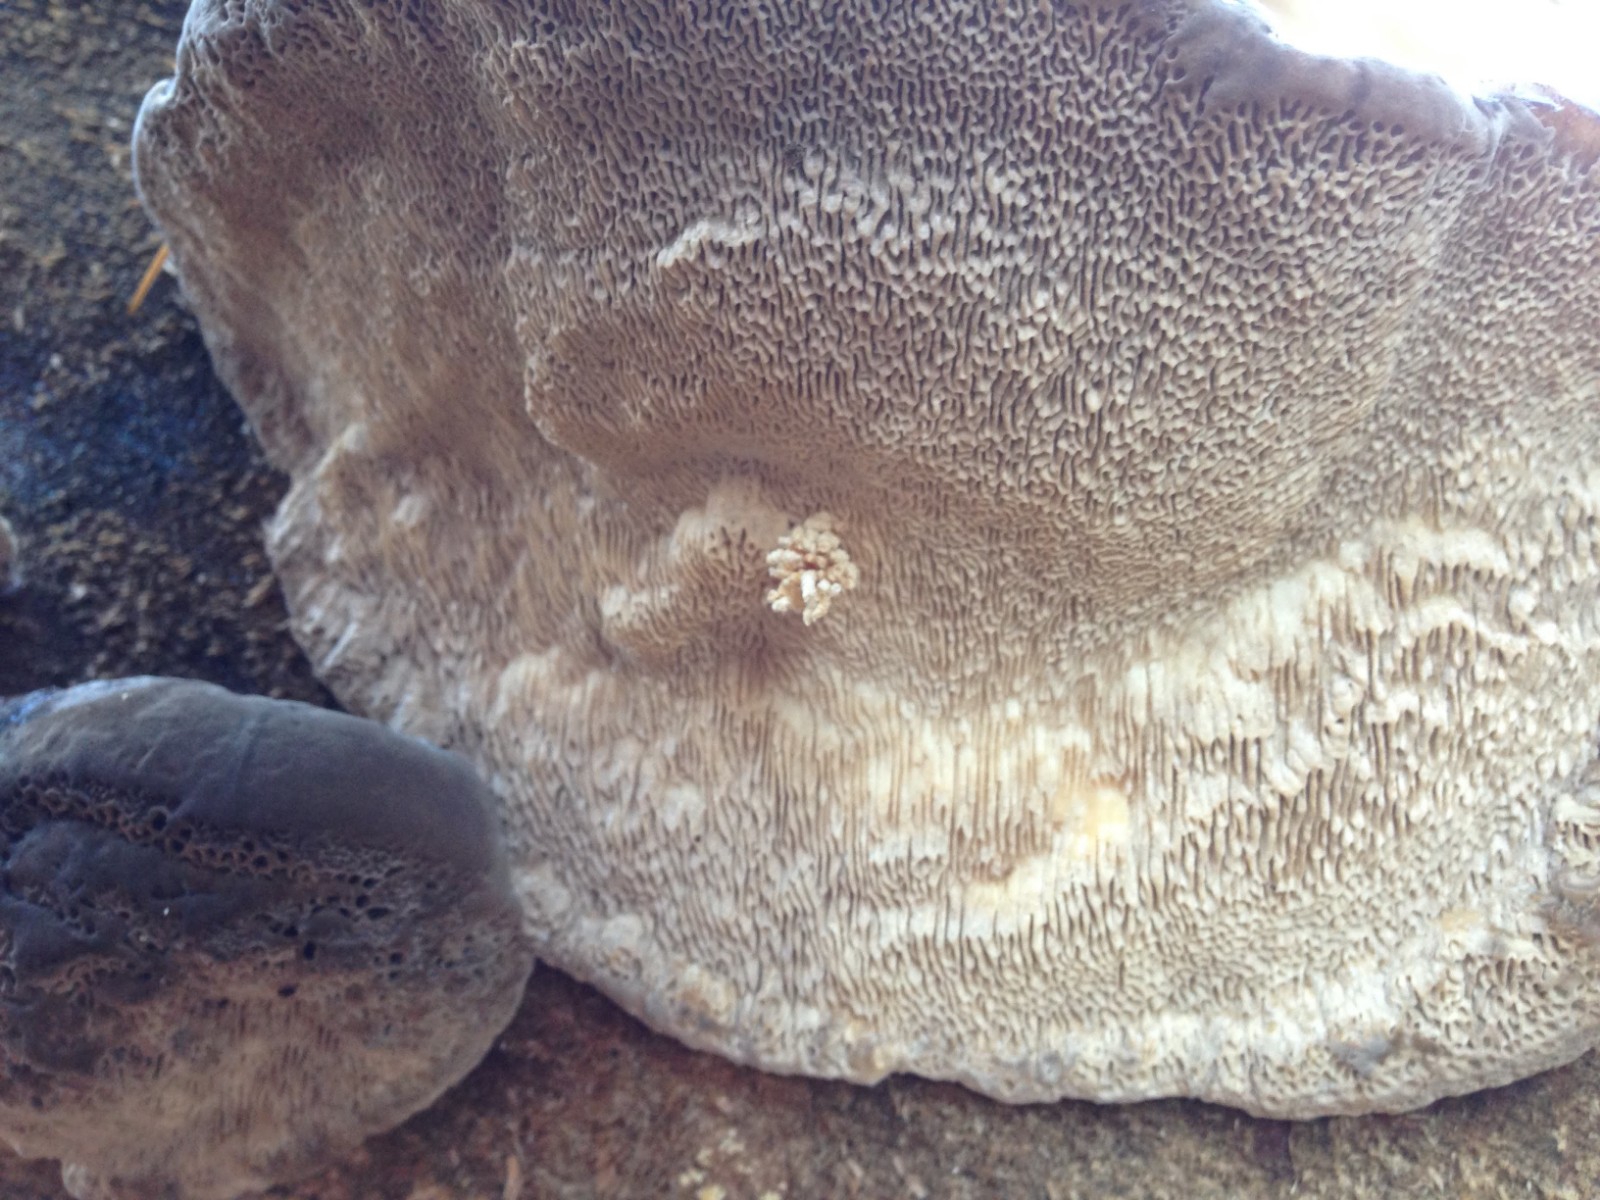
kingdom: Fungi
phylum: Basidiomycota
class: Agaricomycetes
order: Polyporales
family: Polyporaceae
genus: Trametes
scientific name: Trametes gibbosa
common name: puklet læderporesvamp
